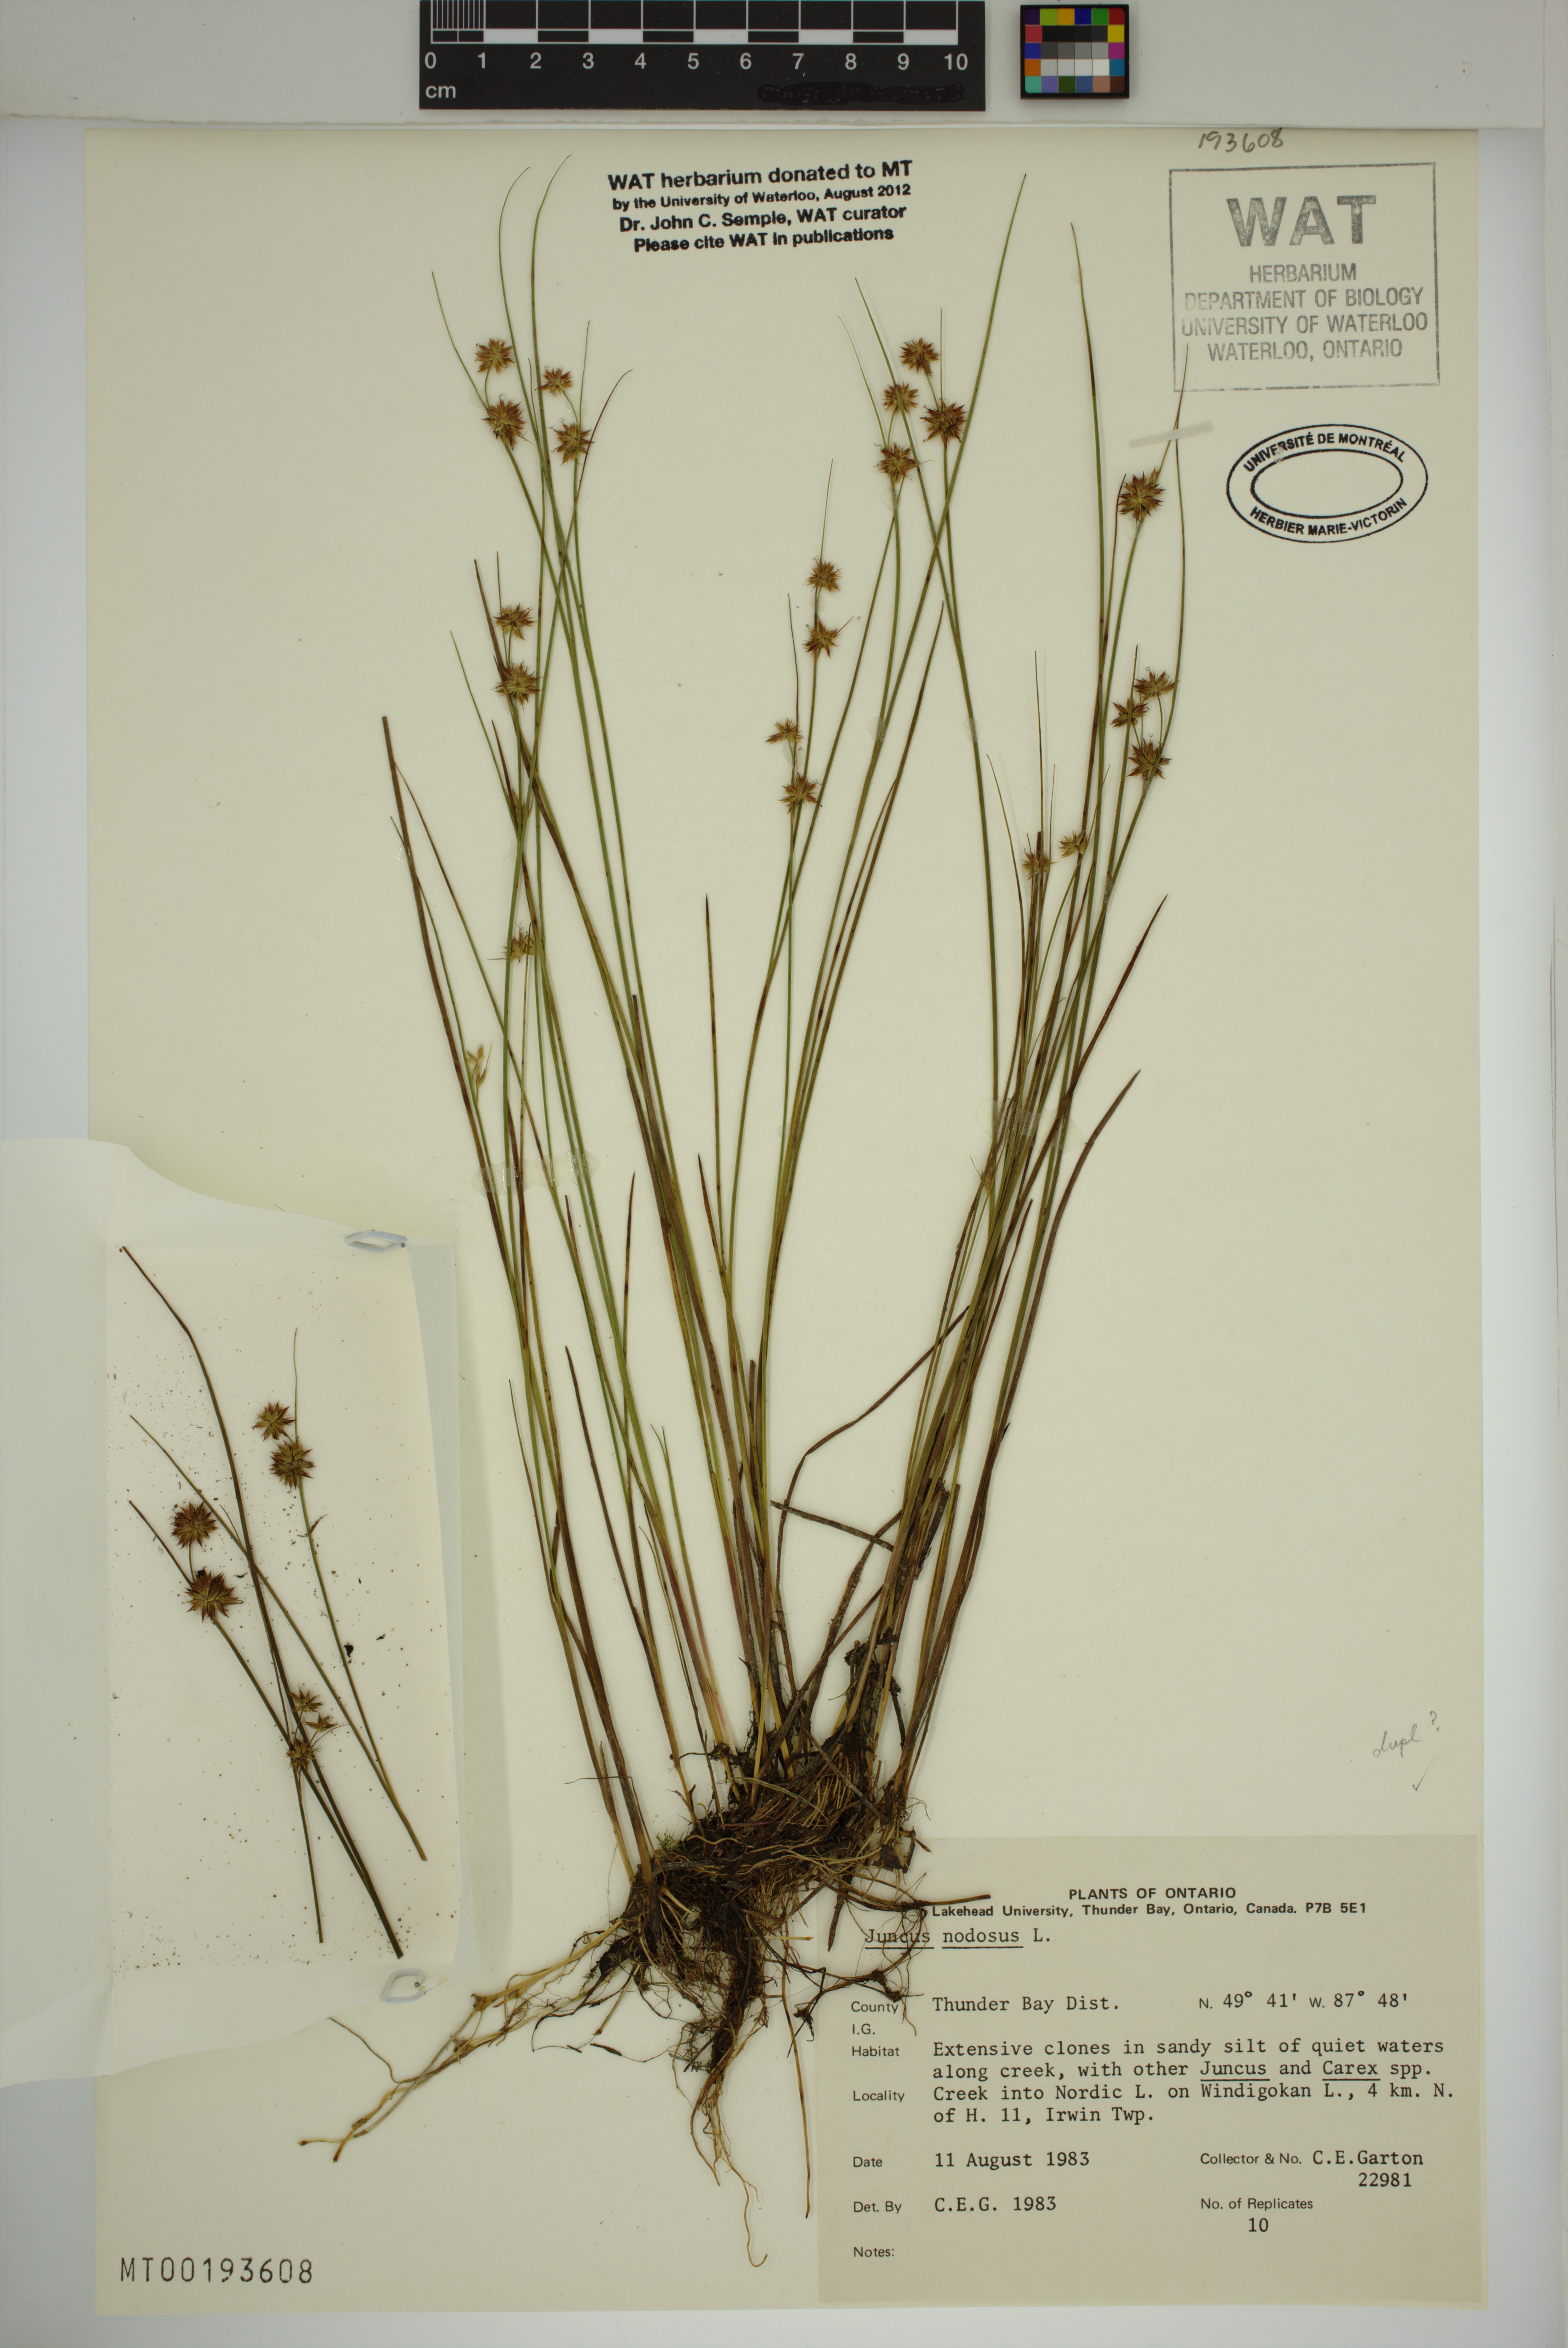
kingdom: Plantae
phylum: Tracheophyta
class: Liliopsida
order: Poales
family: Juncaceae
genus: Juncus
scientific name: Juncus nodosus
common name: Knotted rush
